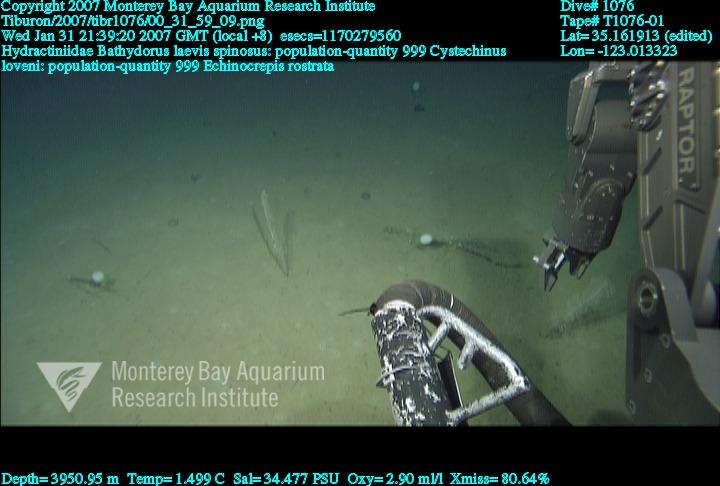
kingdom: Animalia
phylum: Porifera
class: Hexactinellida
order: Lyssacinosida
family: Rossellidae
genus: Bathydorus
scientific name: Bathydorus spinosus
